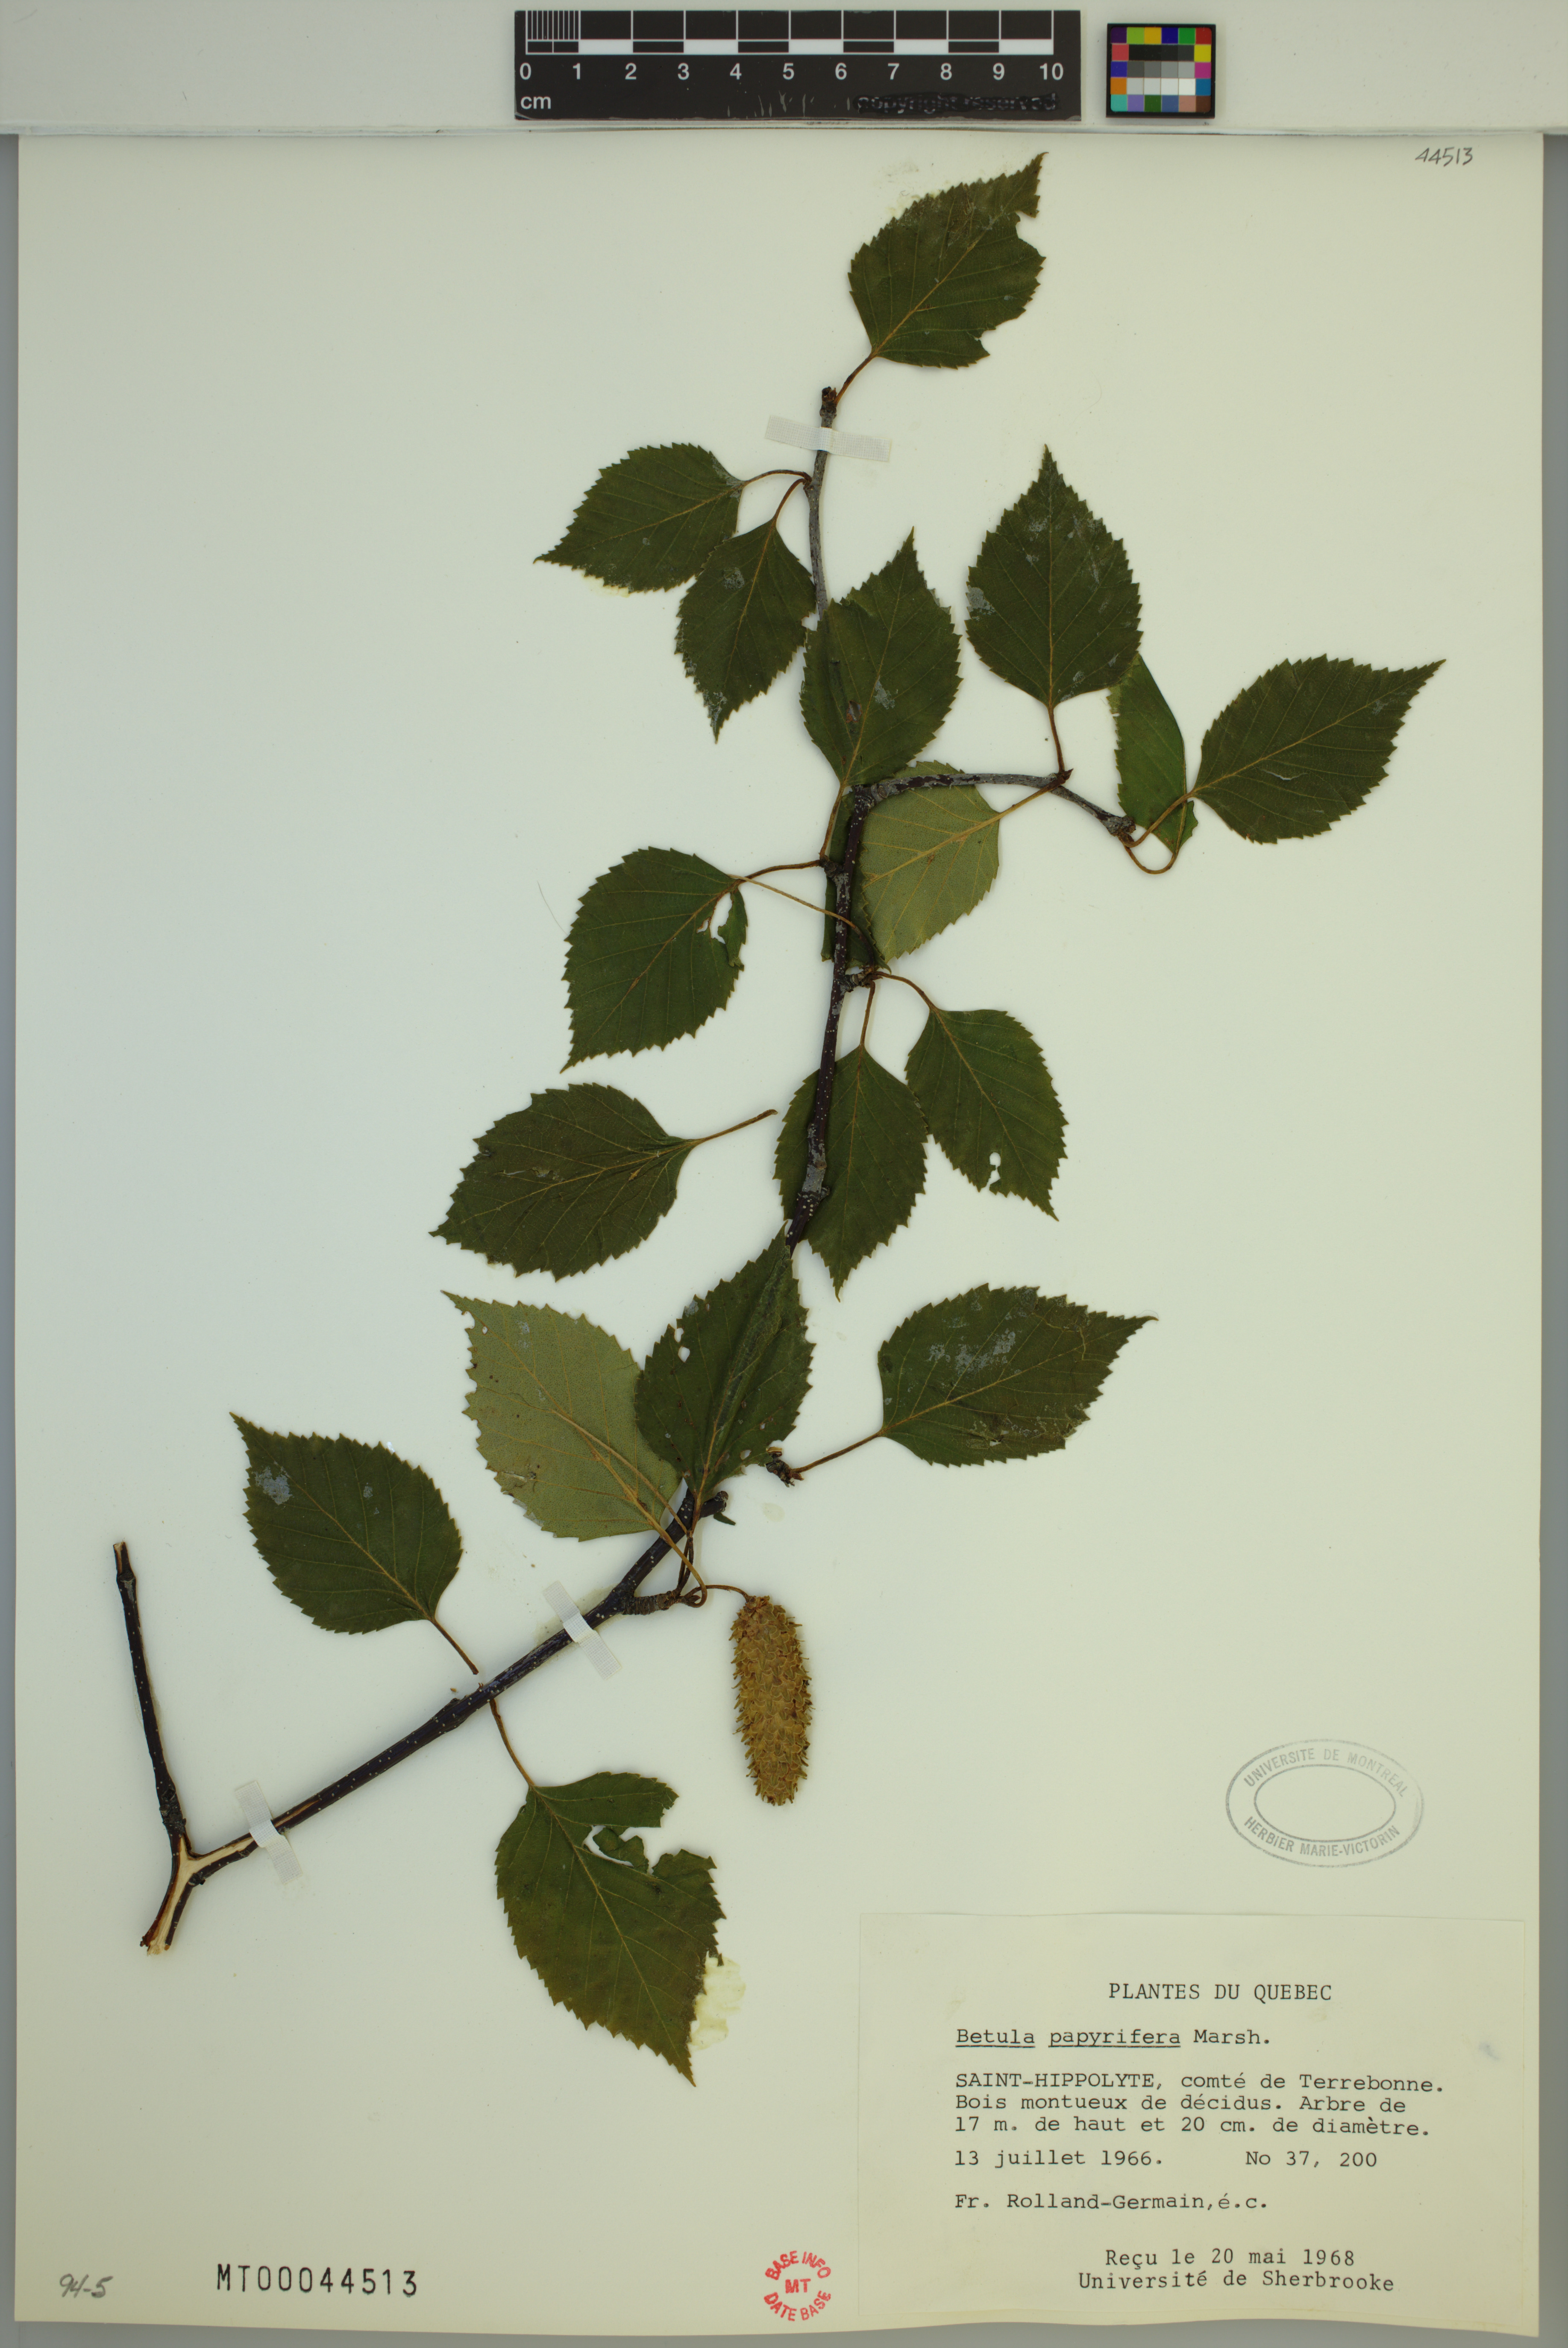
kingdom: Plantae
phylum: Tracheophyta
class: Magnoliopsida
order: Fagales
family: Betulaceae
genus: Betula
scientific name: Betula papyrifera
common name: Paper birch
